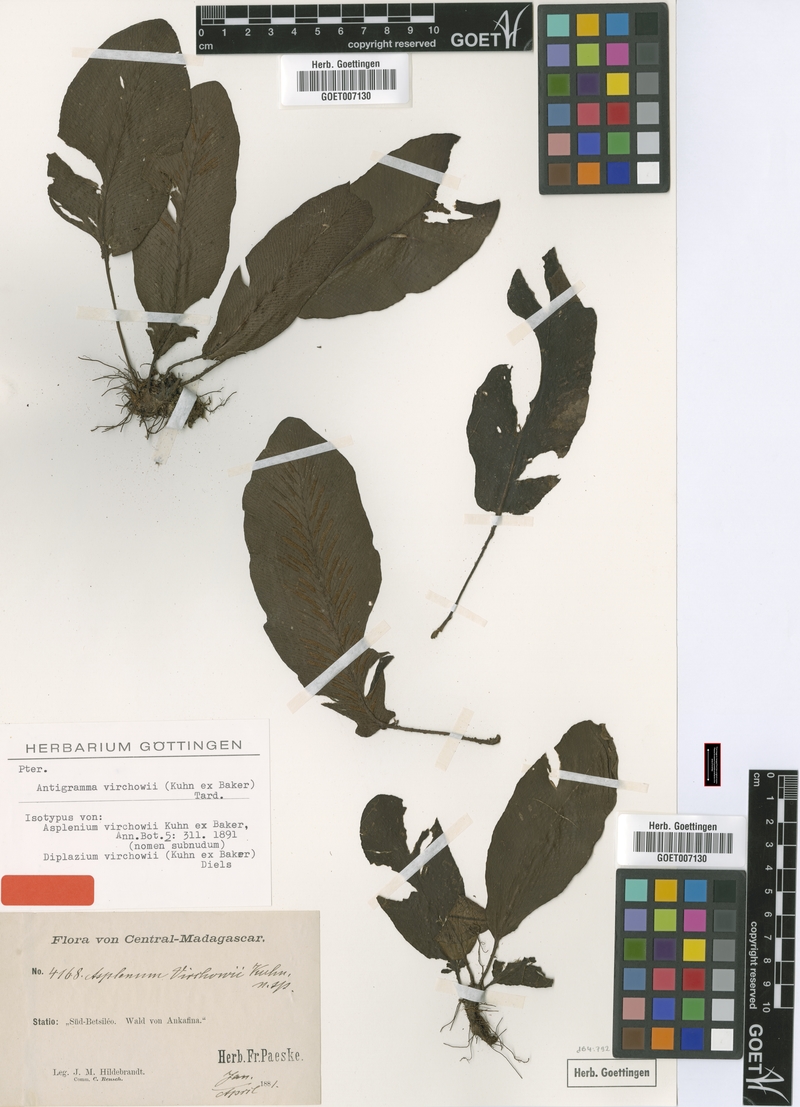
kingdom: Plantae
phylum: Tracheophyta
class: Polypodiopsida
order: Polypodiales
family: Aspleniaceae
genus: Asplenium
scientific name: Asplenium virchowii
